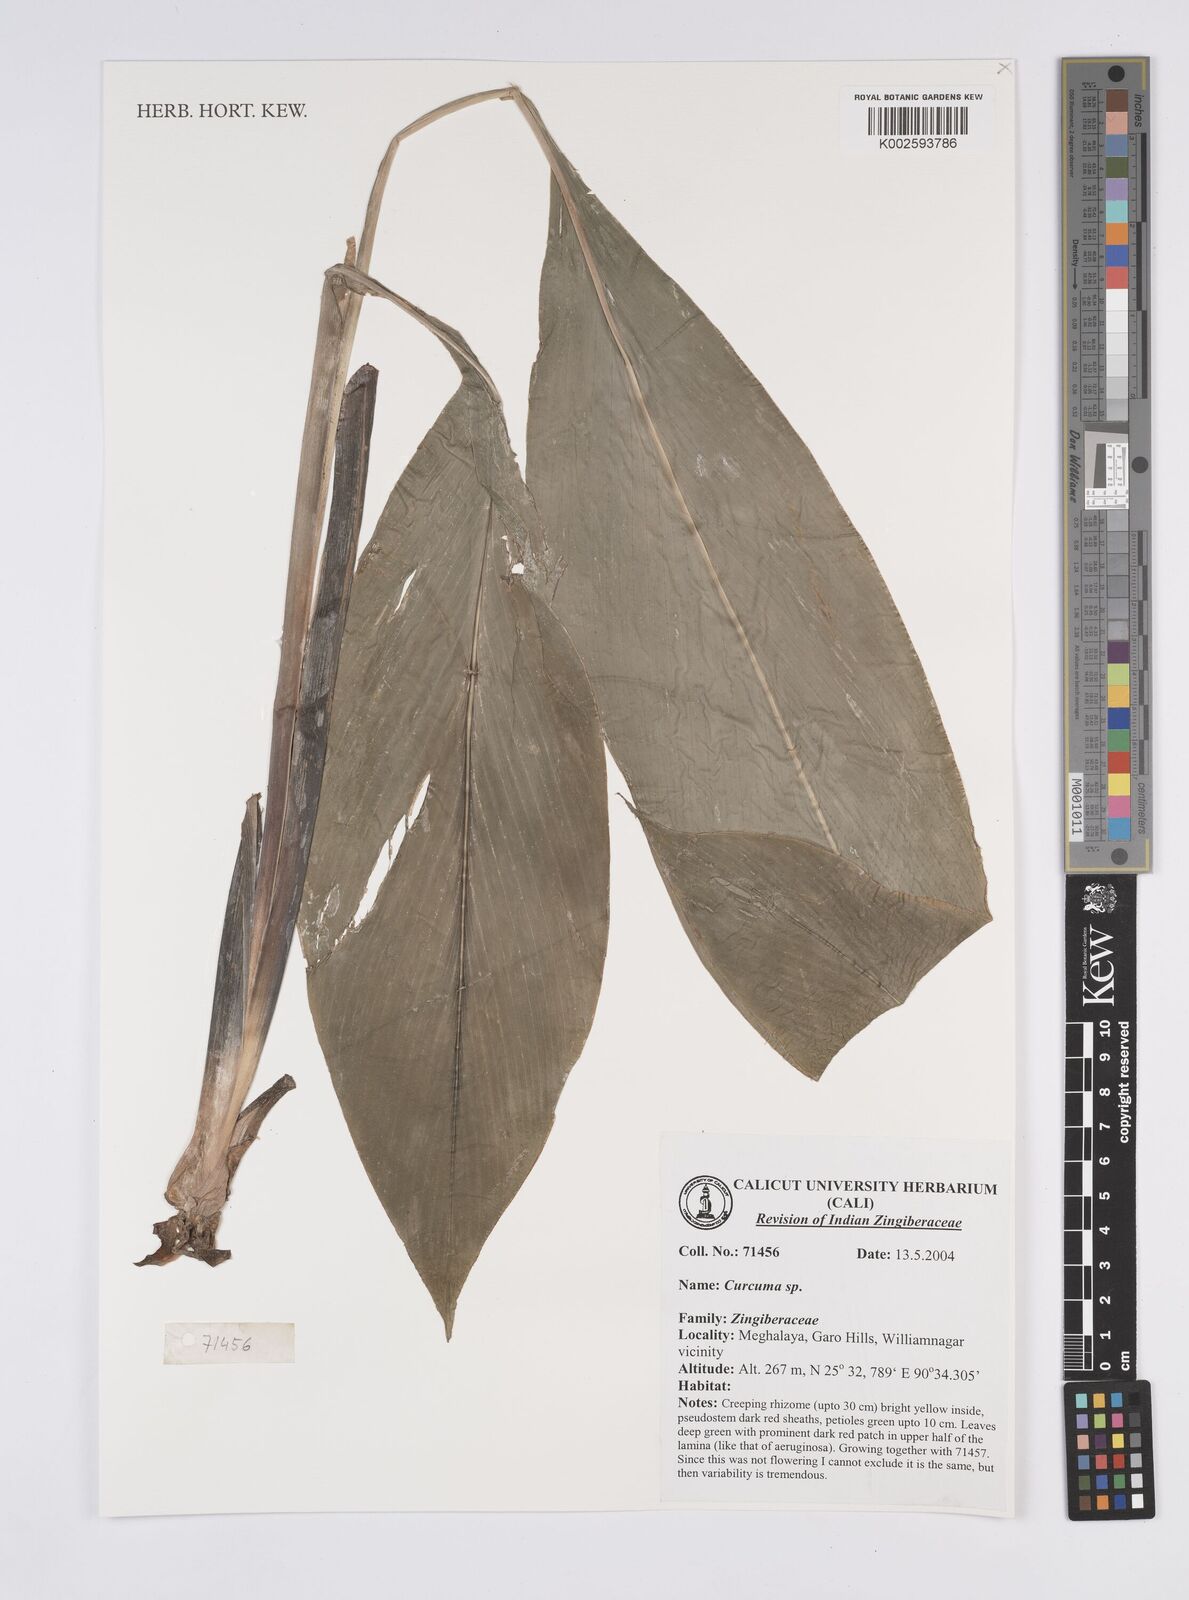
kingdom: Plantae
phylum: Tracheophyta
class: Liliopsida
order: Zingiberales
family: Zingiberaceae
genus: Curcuma
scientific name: Curcuma
